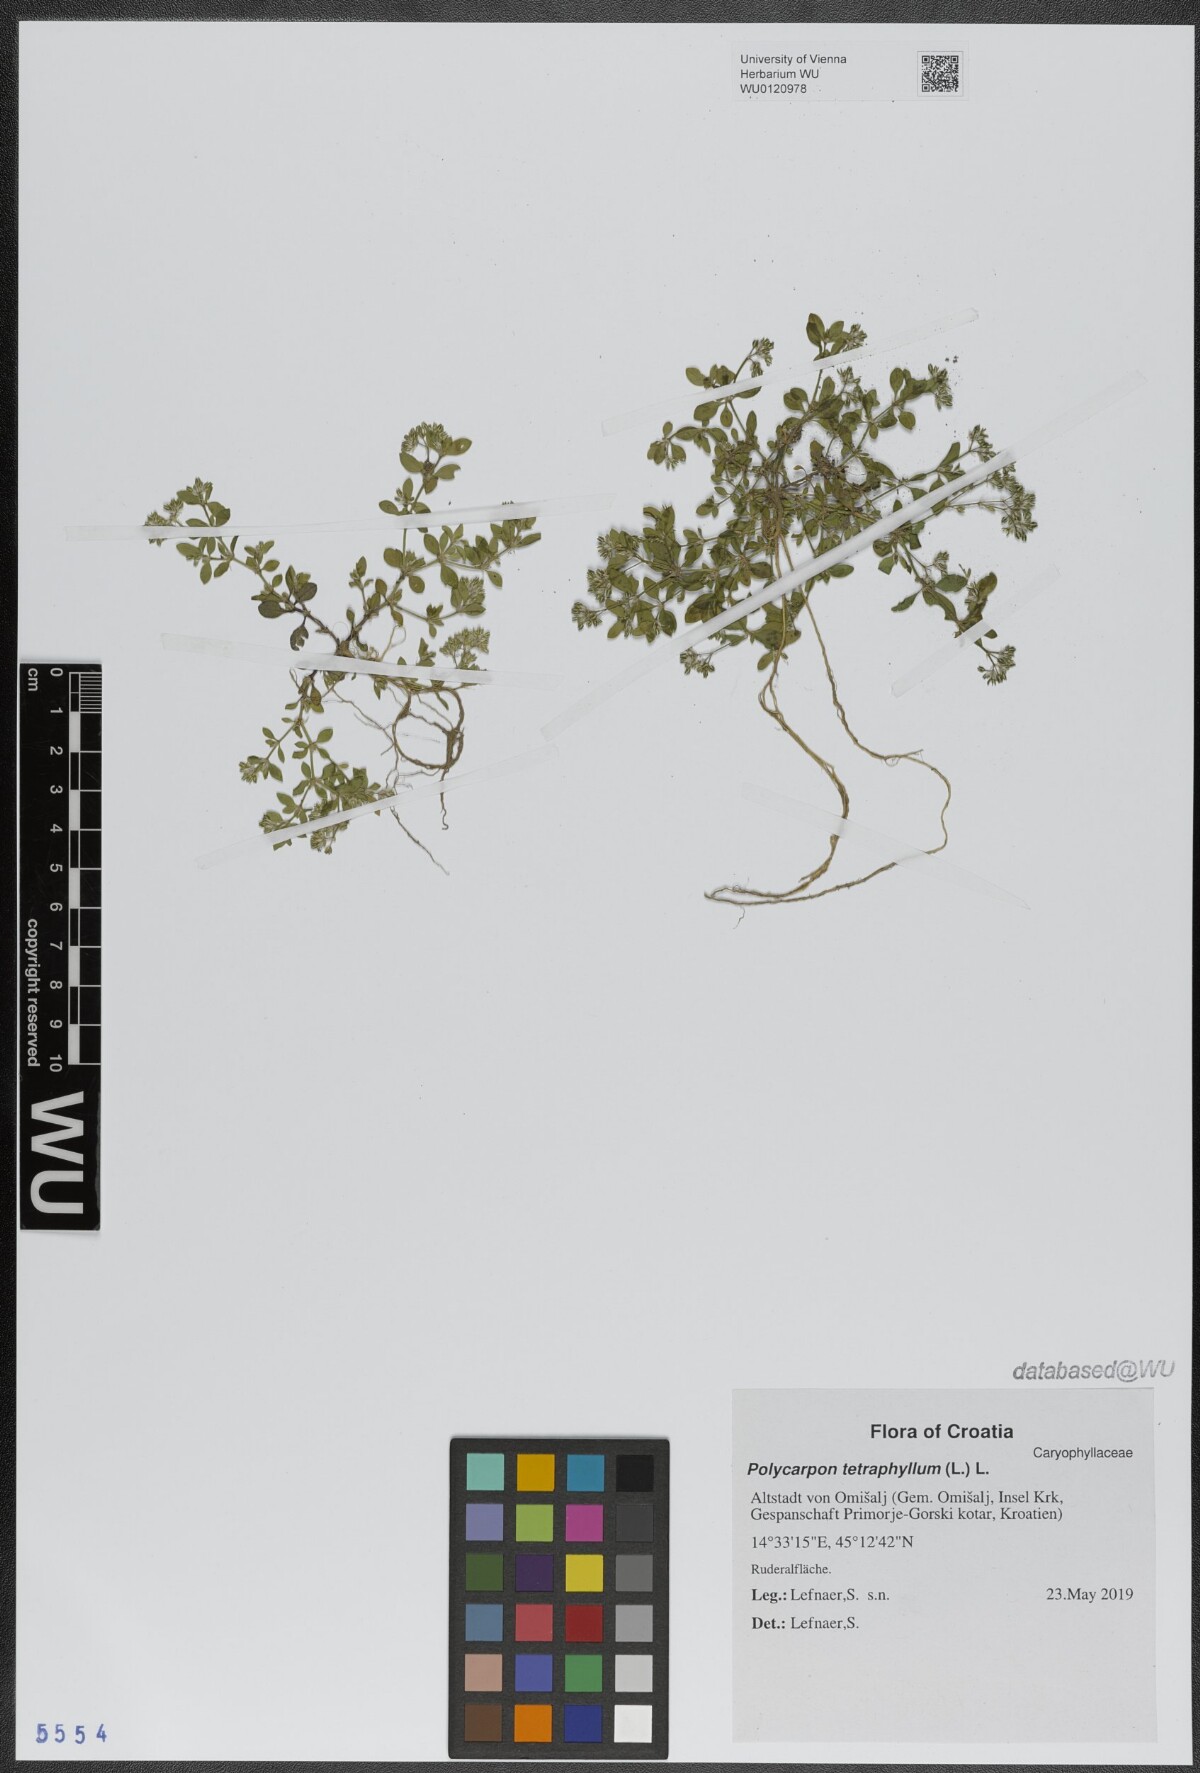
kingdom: Plantae
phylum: Tracheophyta
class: Magnoliopsida
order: Caryophyllales
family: Caryophyllaceae
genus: Polycarpon
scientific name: Polycarpon tetraphyllum
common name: Four-leaved all-seed
